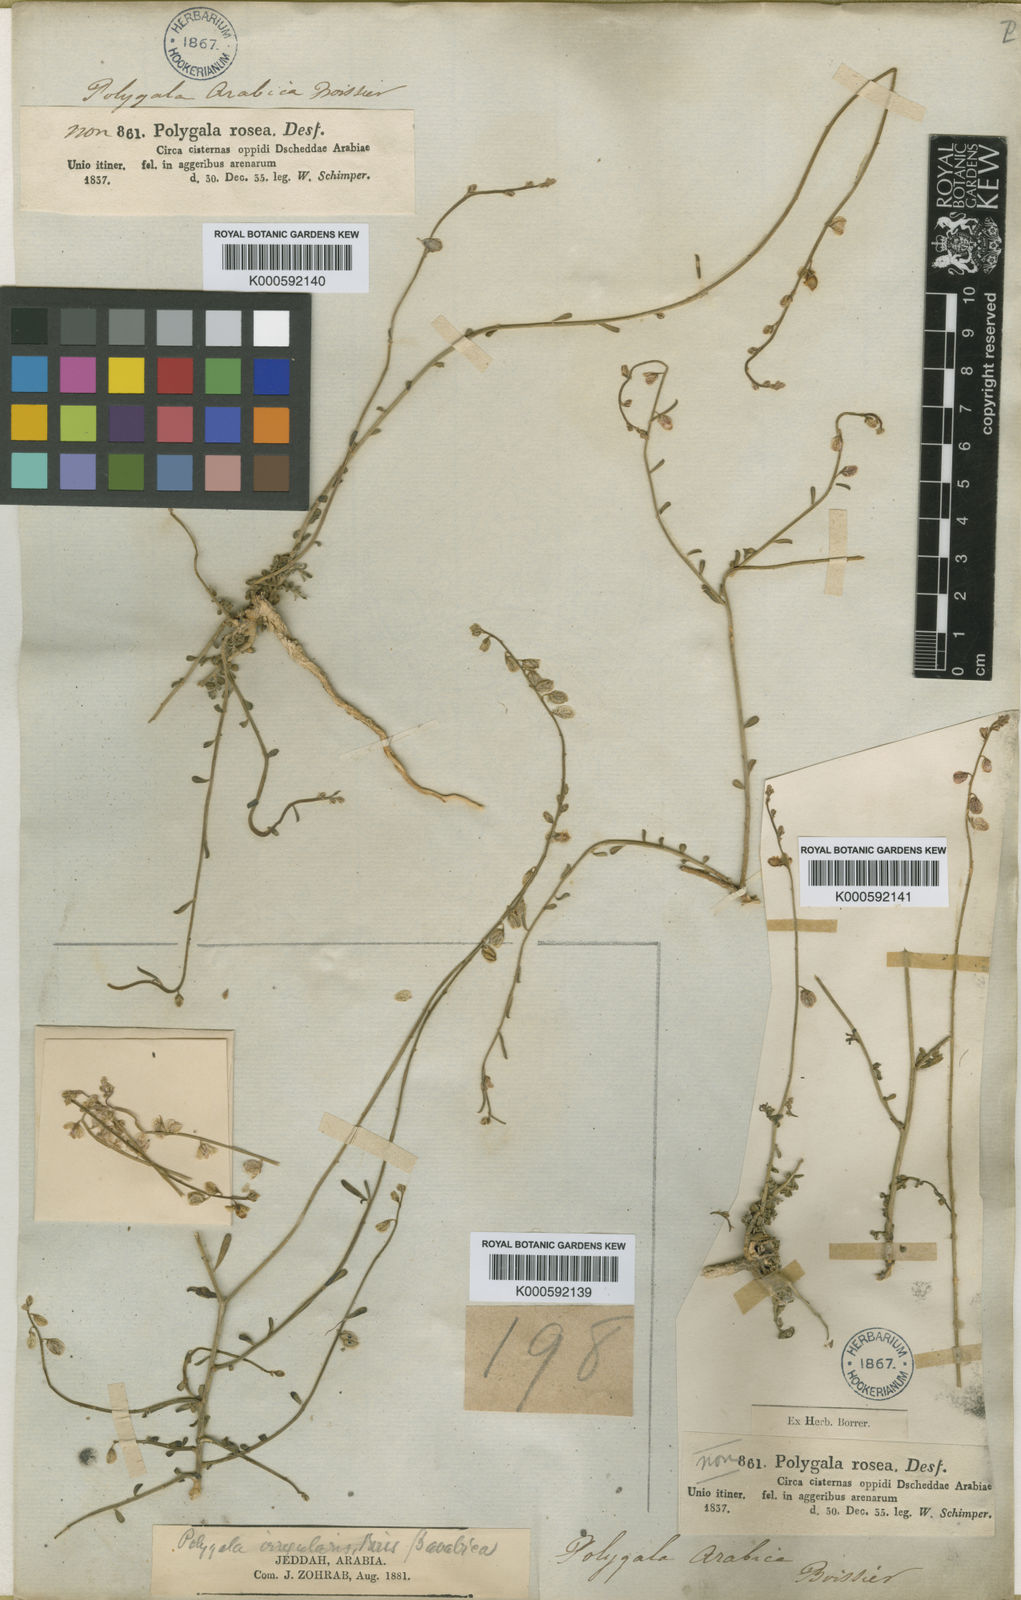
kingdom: Plantae
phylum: Tracheophyta
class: Magnoliopsida
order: Fabales
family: Polygalaceae
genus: Polygala
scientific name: Polygala irregularis
